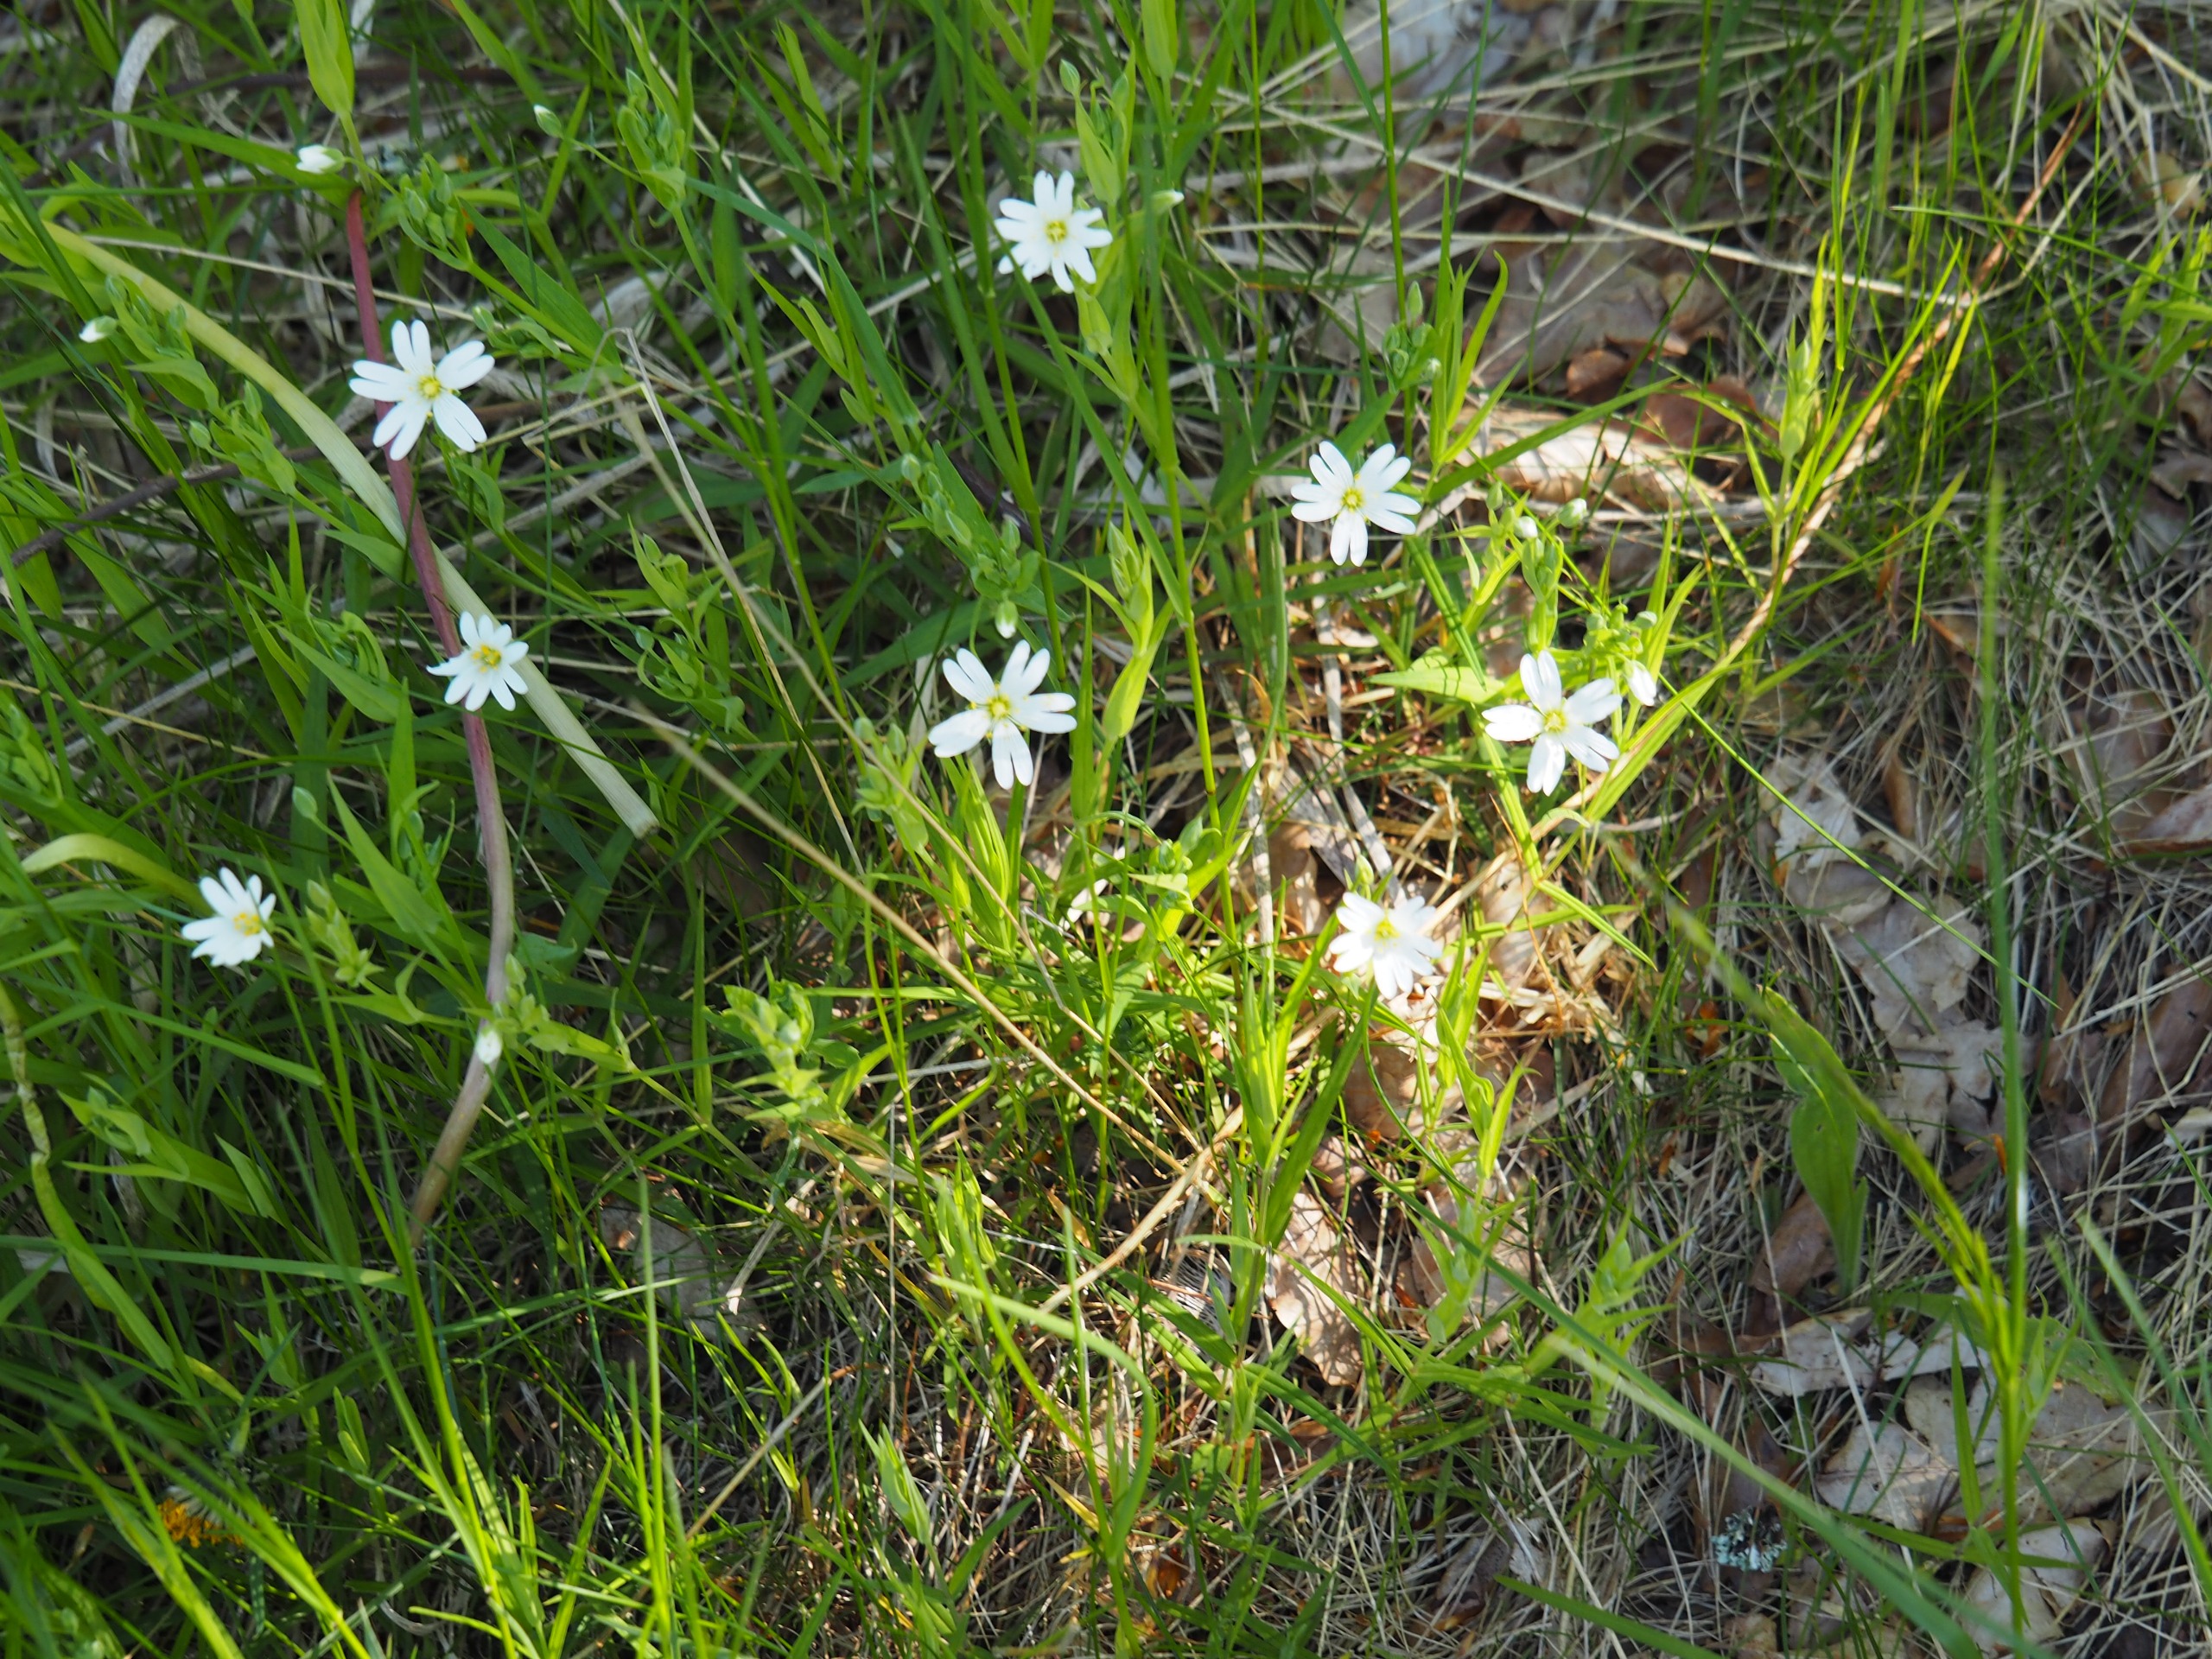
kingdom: Plantae
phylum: Tracheophyta
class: Magnoliopsida
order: Caryophyllales
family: Caryophyllaceae
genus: Rabelera
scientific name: Rabelera holostea
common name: Stor fladstjerne
